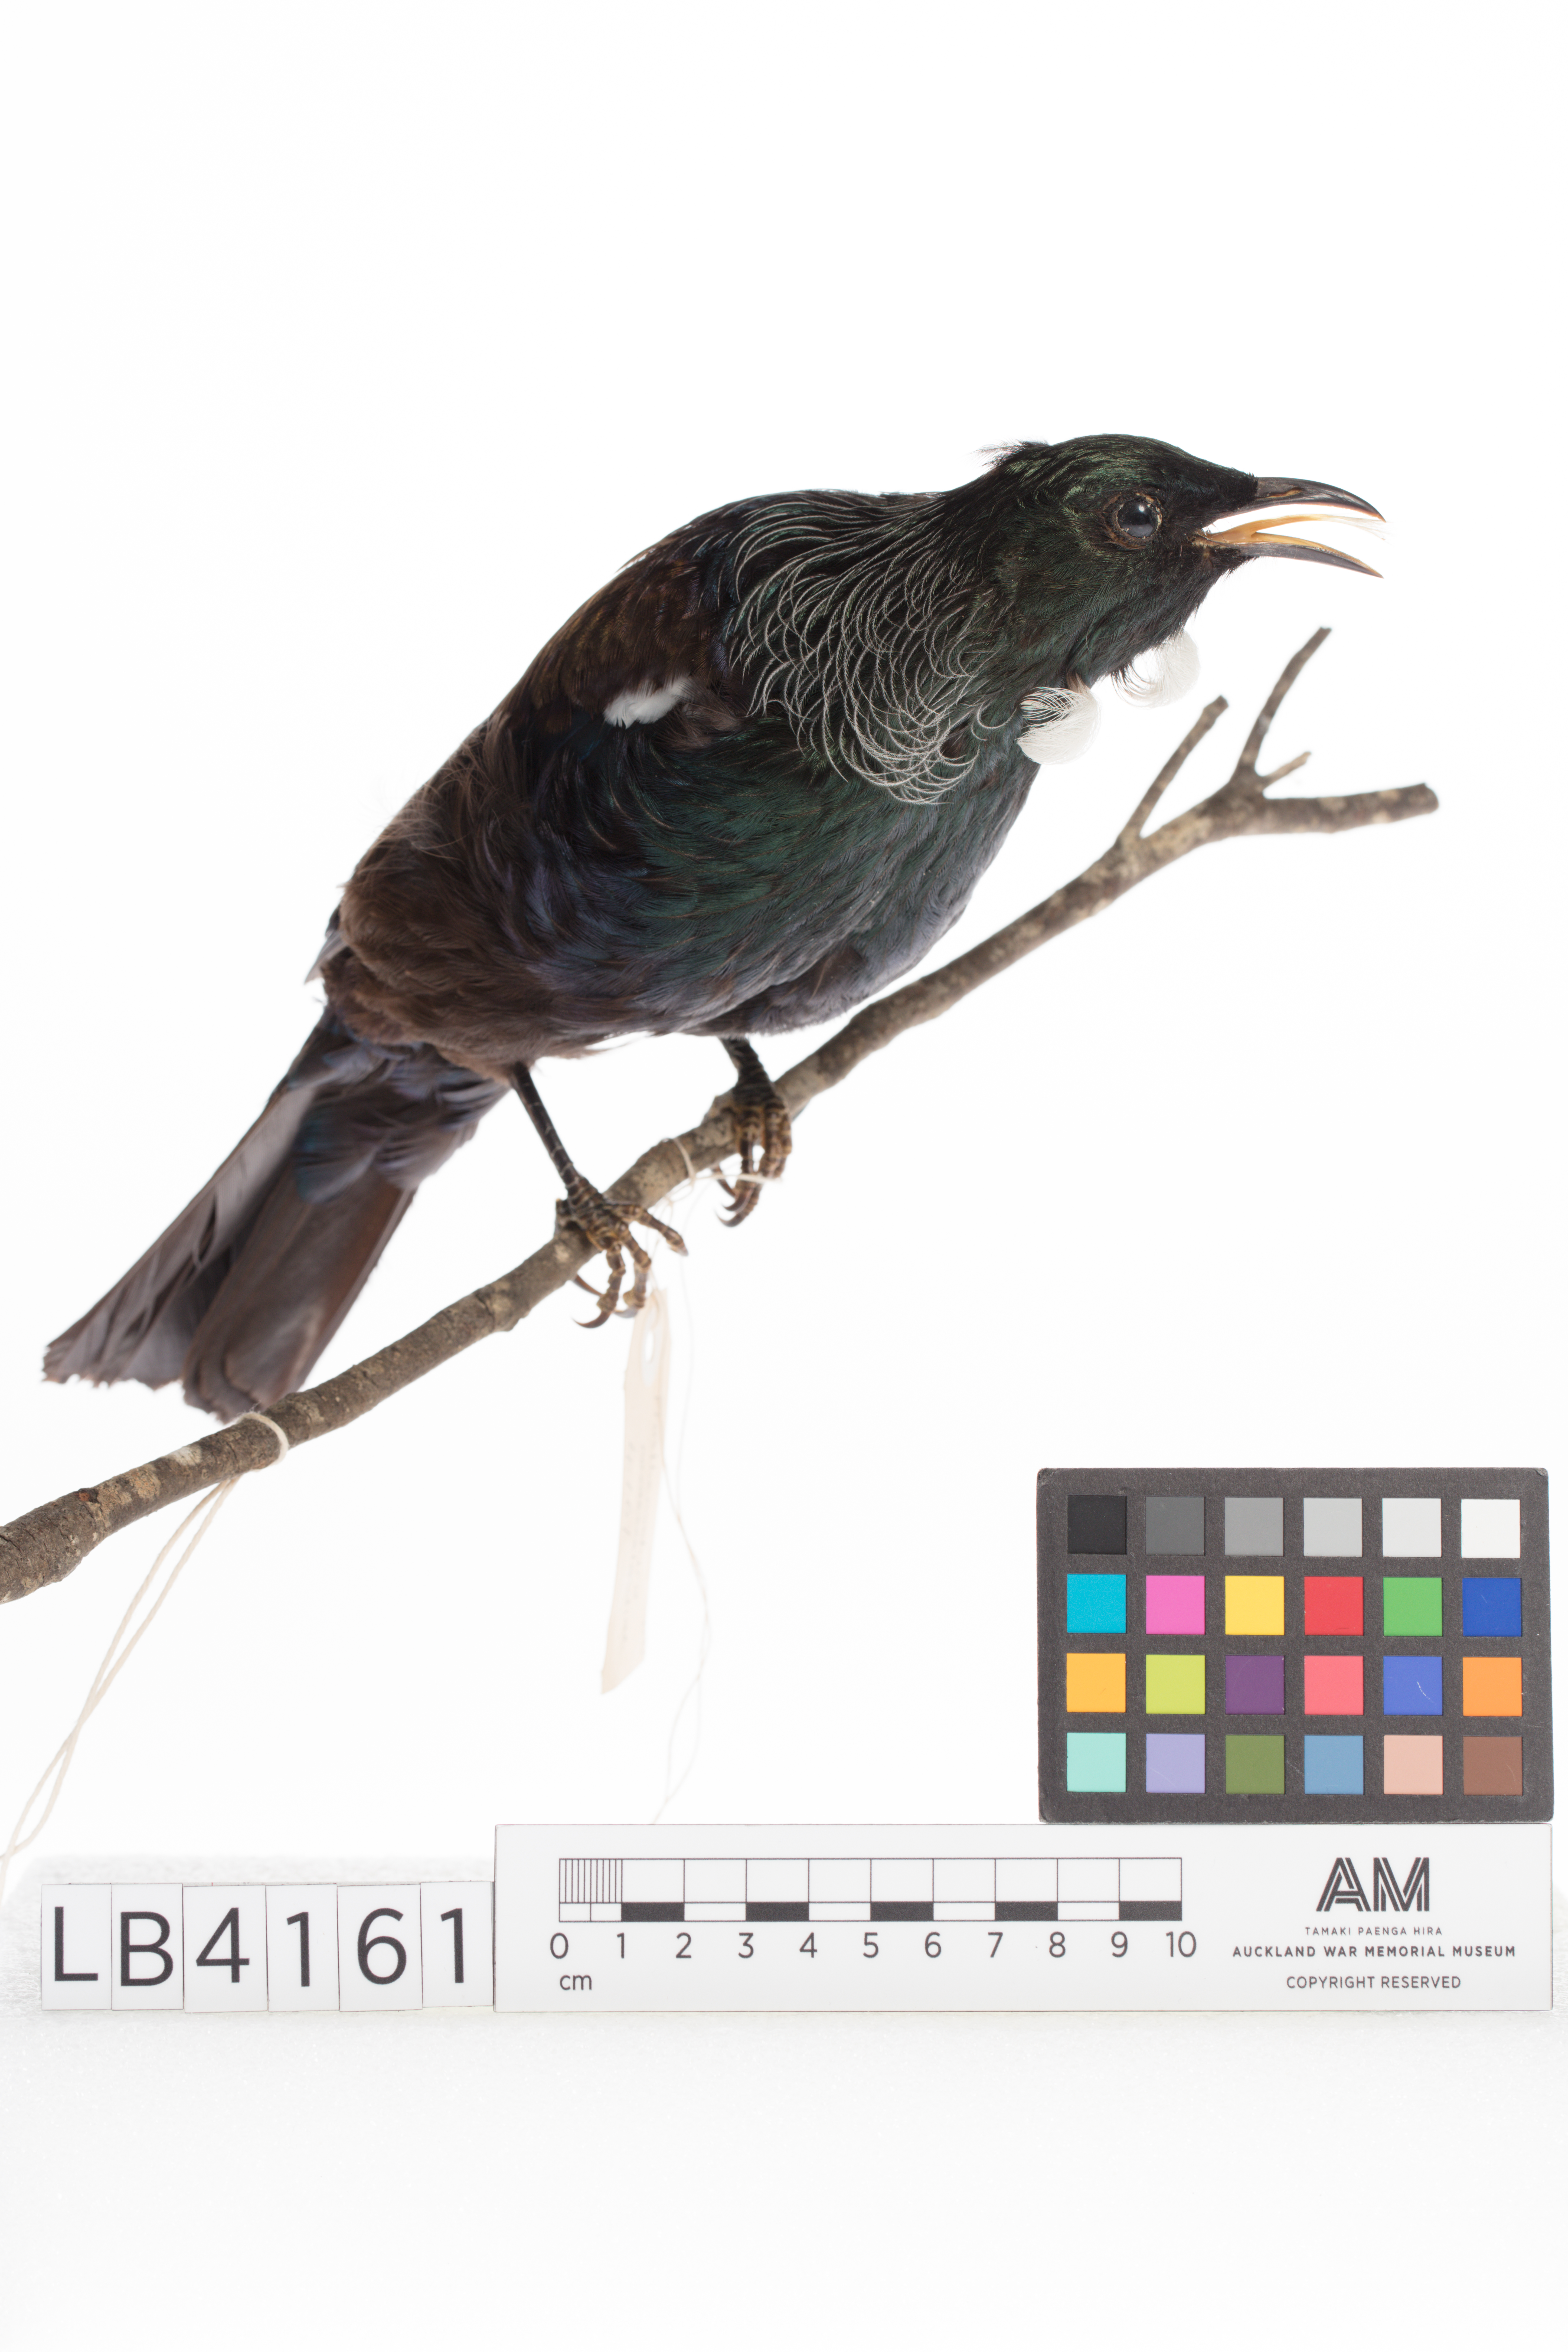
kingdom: Animalia
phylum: Chordata
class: Aves
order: Passeriformes
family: Meliphagidae
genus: Prosthemadera
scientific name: Prosthemadera novaeseelandiae
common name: Tui
